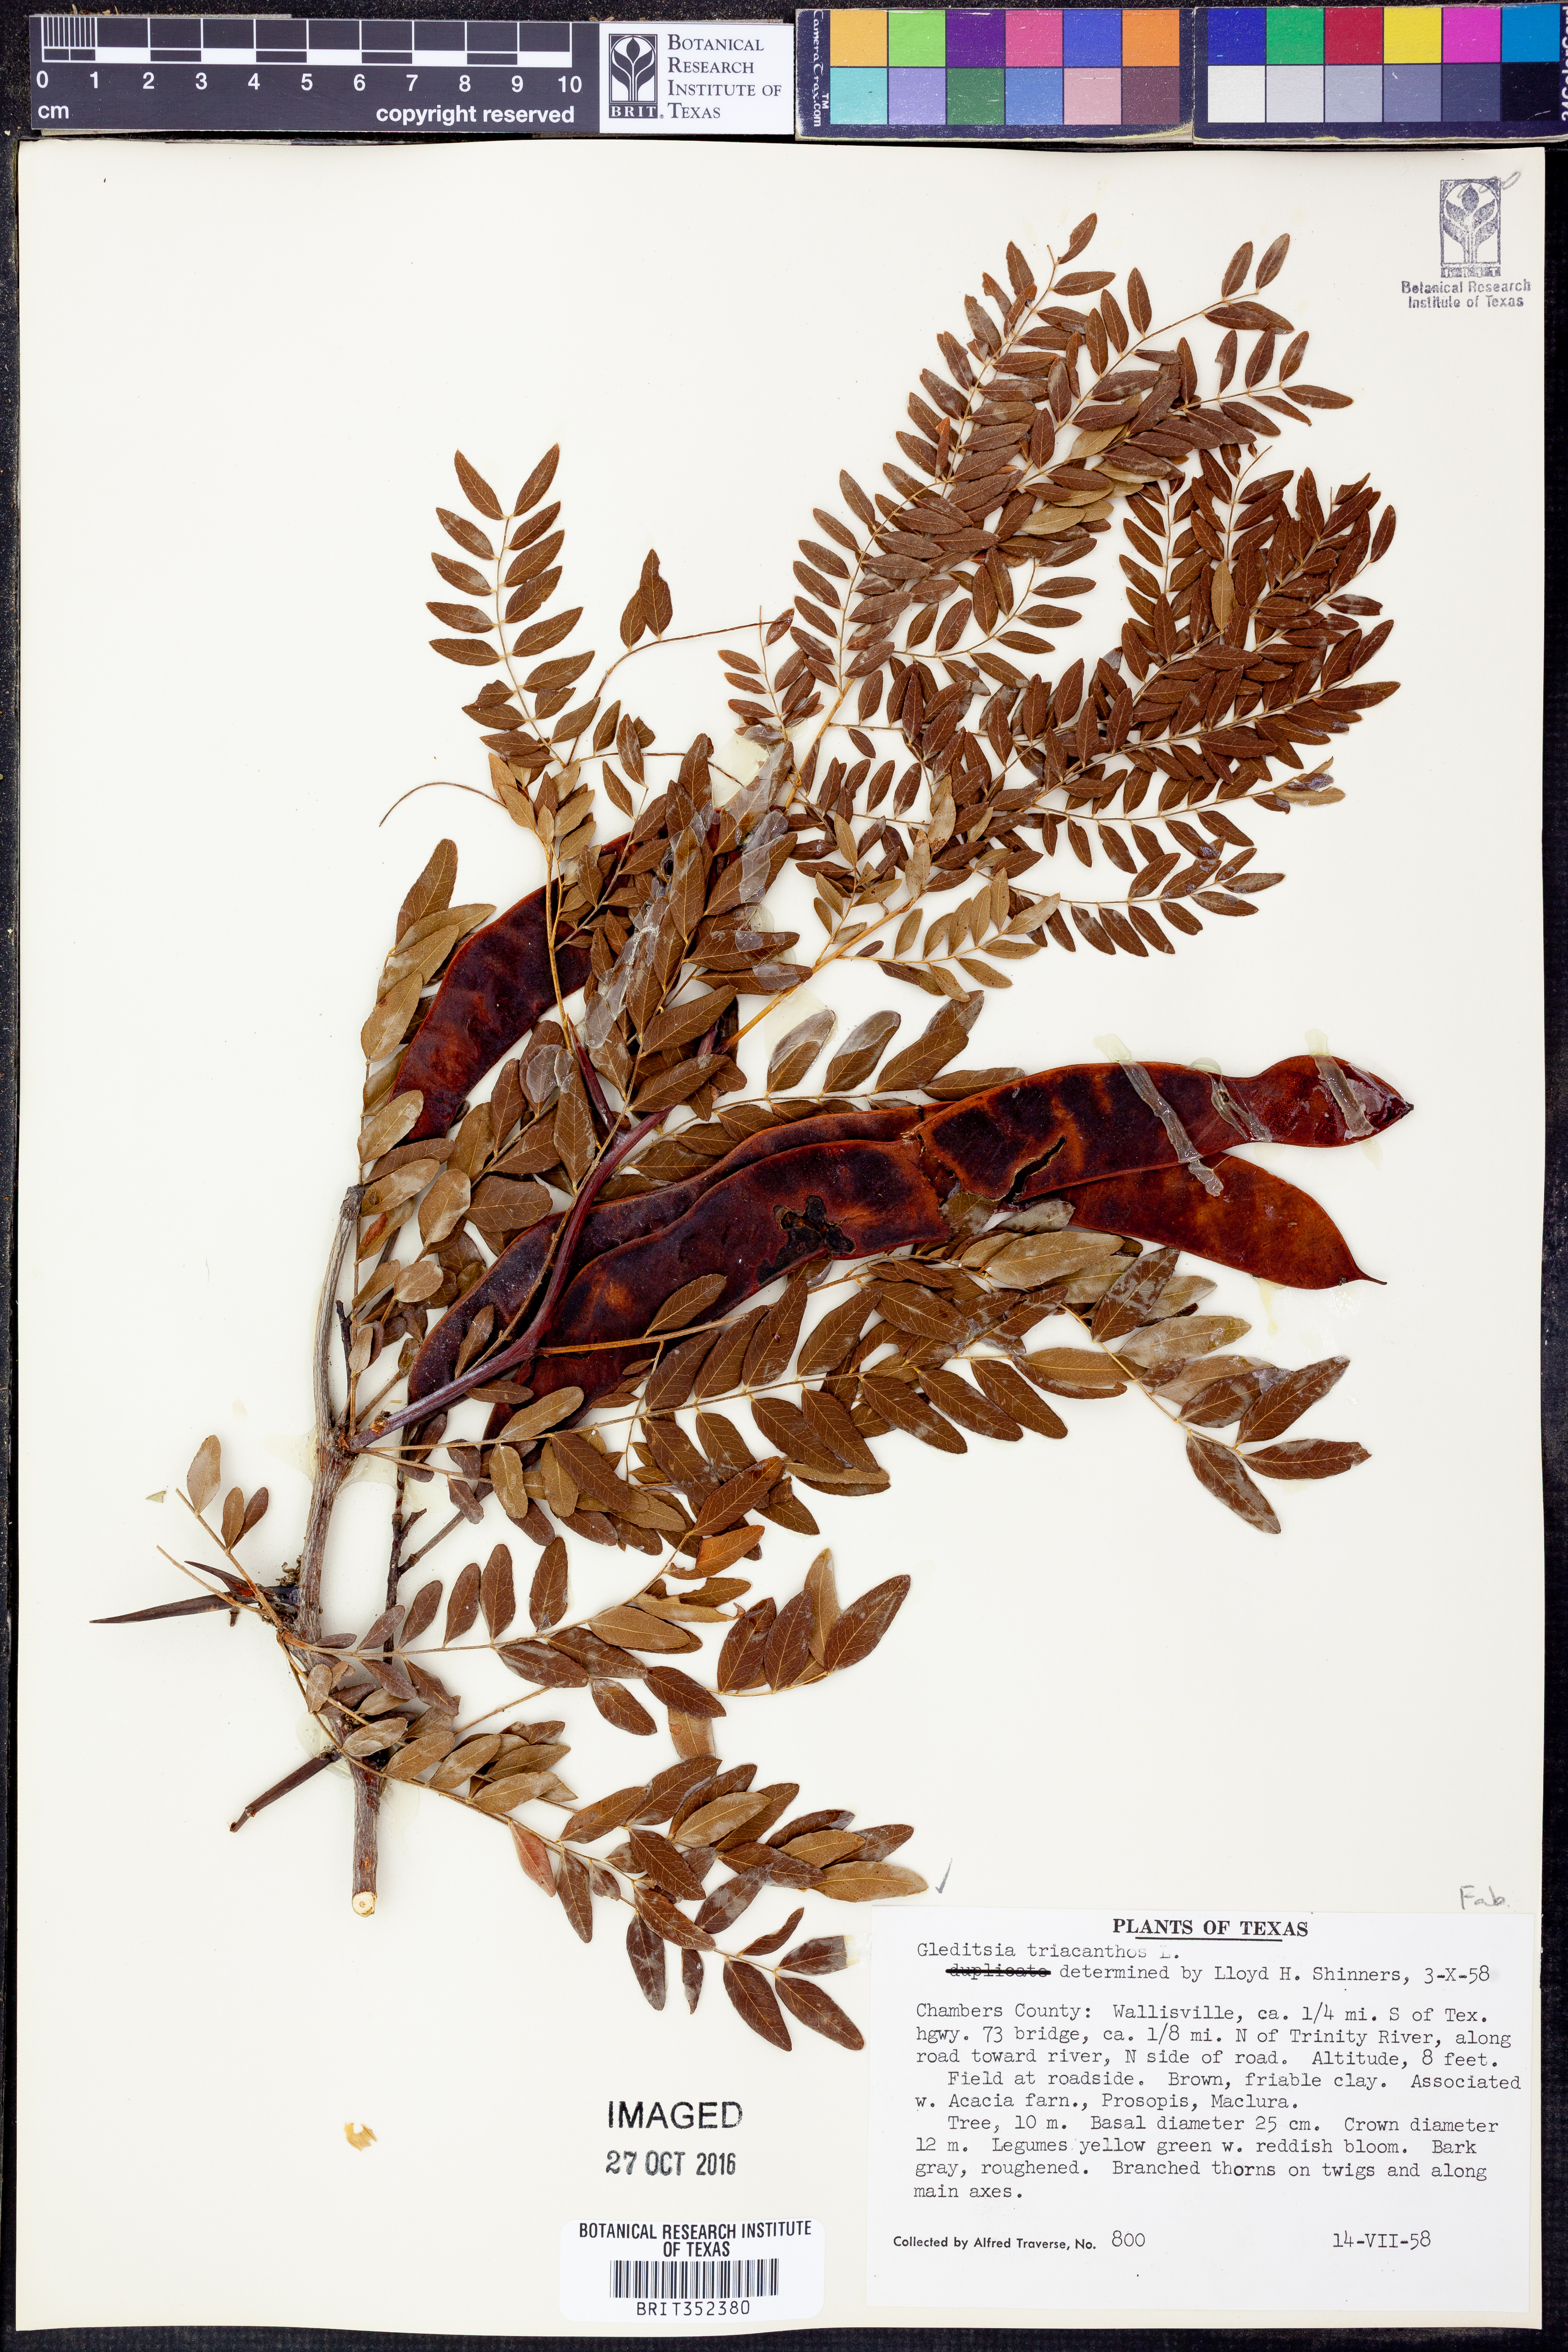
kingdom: Plantae
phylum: Tracheophyta
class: Magnoliopsida
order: Fabales
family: Fabaceae
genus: Gleditsia
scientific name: Gleditsia triacanthos
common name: Common honeylocust
